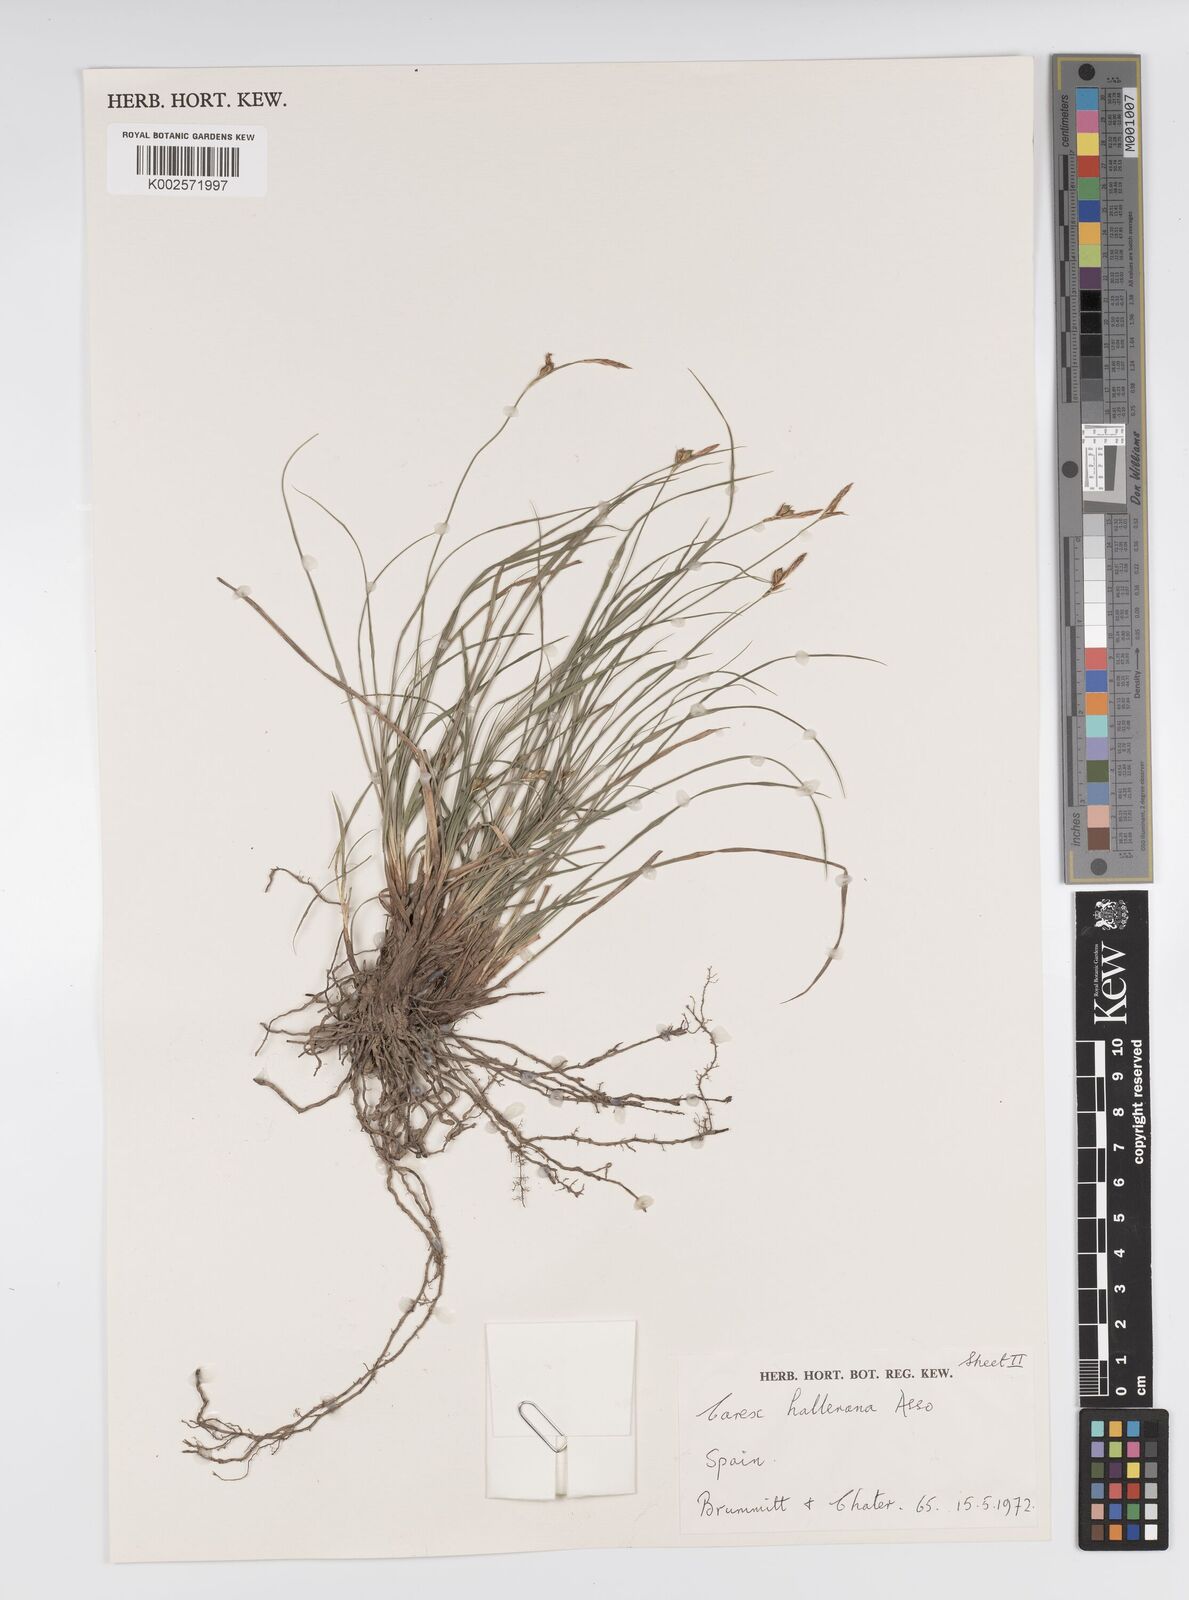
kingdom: Plantae
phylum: Tracheophyta
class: Liliopsida
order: Poales
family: Cyperaceae
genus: Carex
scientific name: Carex halleriana
